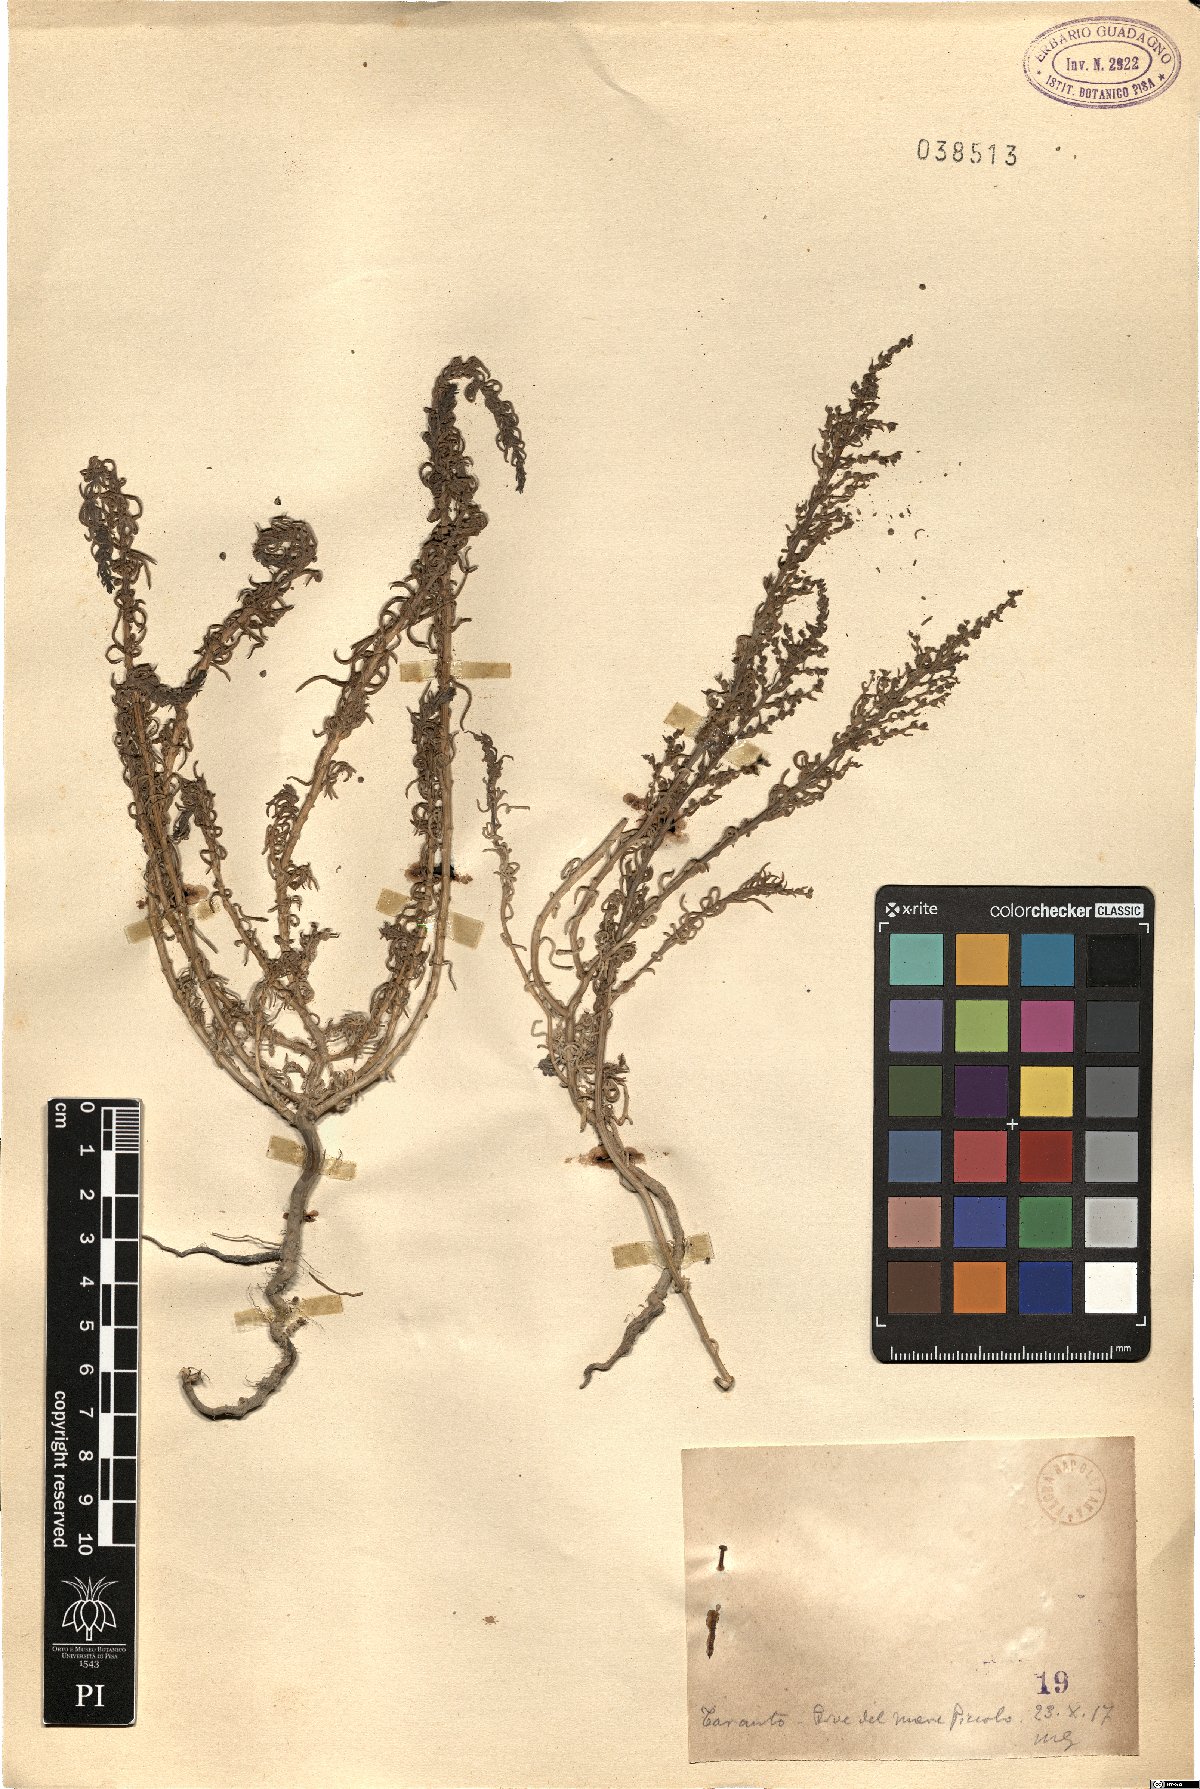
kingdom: Plantae
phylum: Tracheophyta
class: Magnoliopsida
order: Caryophyllales
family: Amaranthaceae
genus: Suaeda
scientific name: Suaeda
